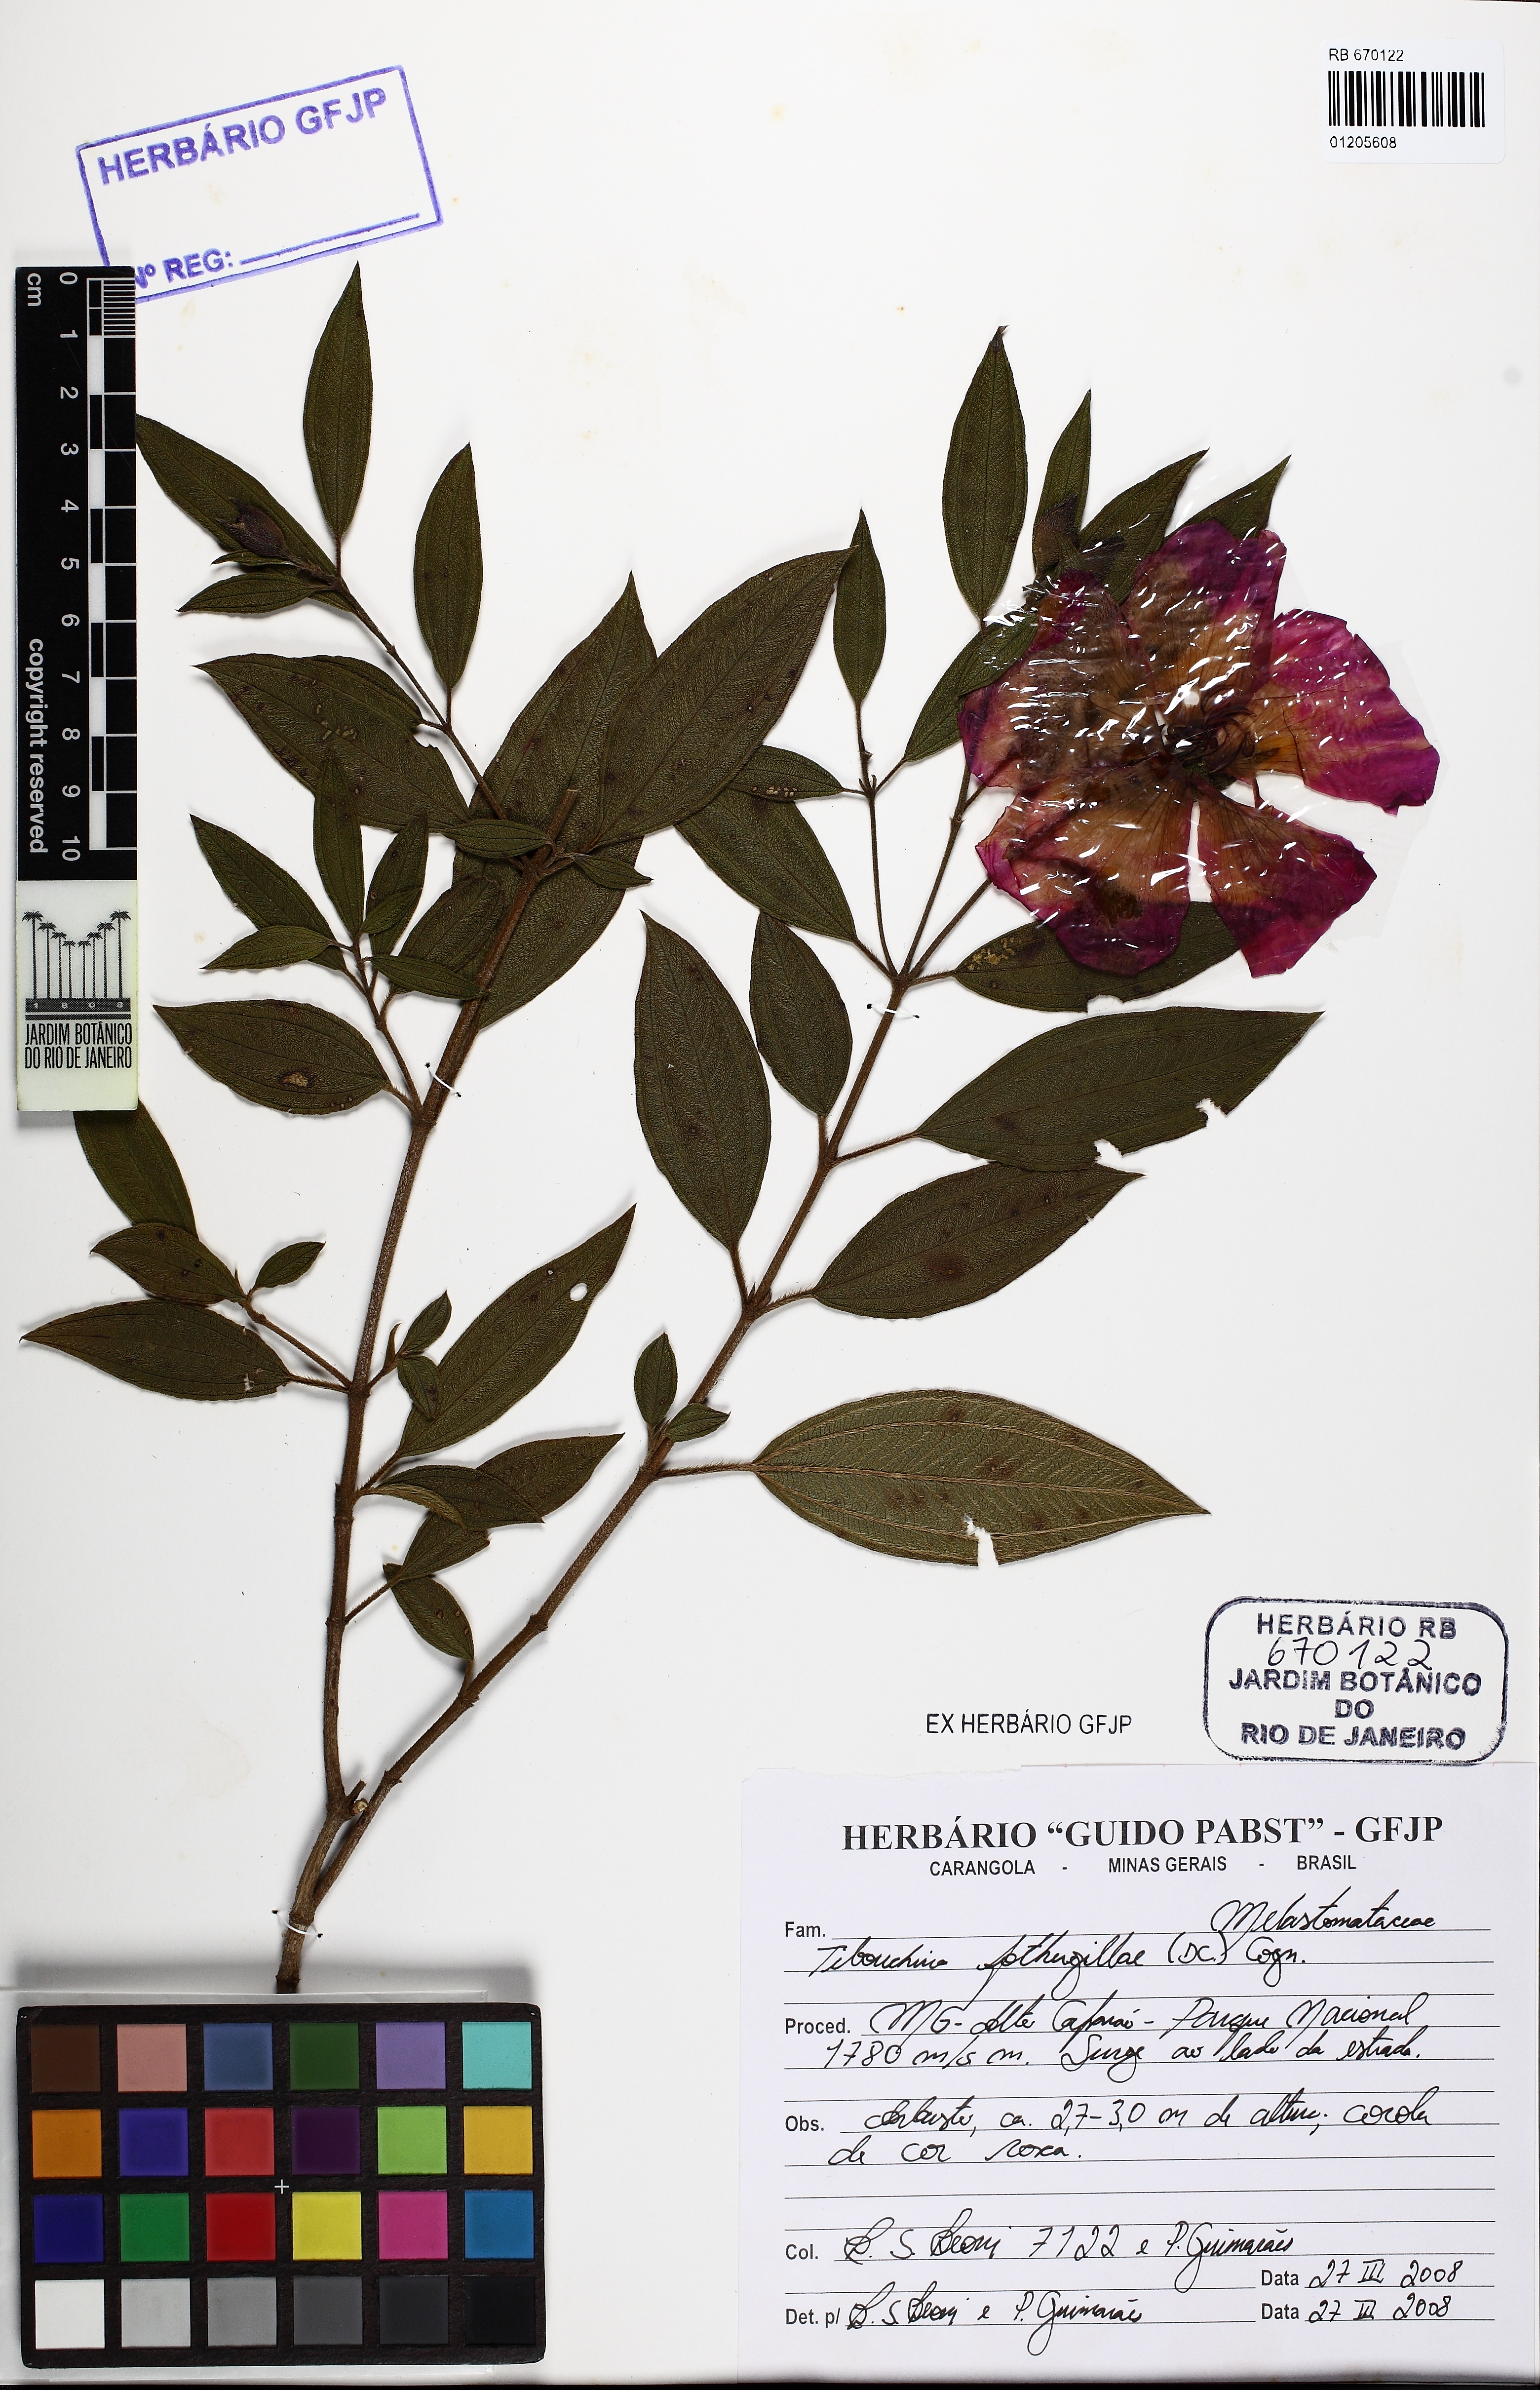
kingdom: Plantae
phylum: Tracheophyta
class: Magnoliopsida
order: Myrtales
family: Melastomataceae
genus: Pleroma
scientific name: Pleroma fothergillae
